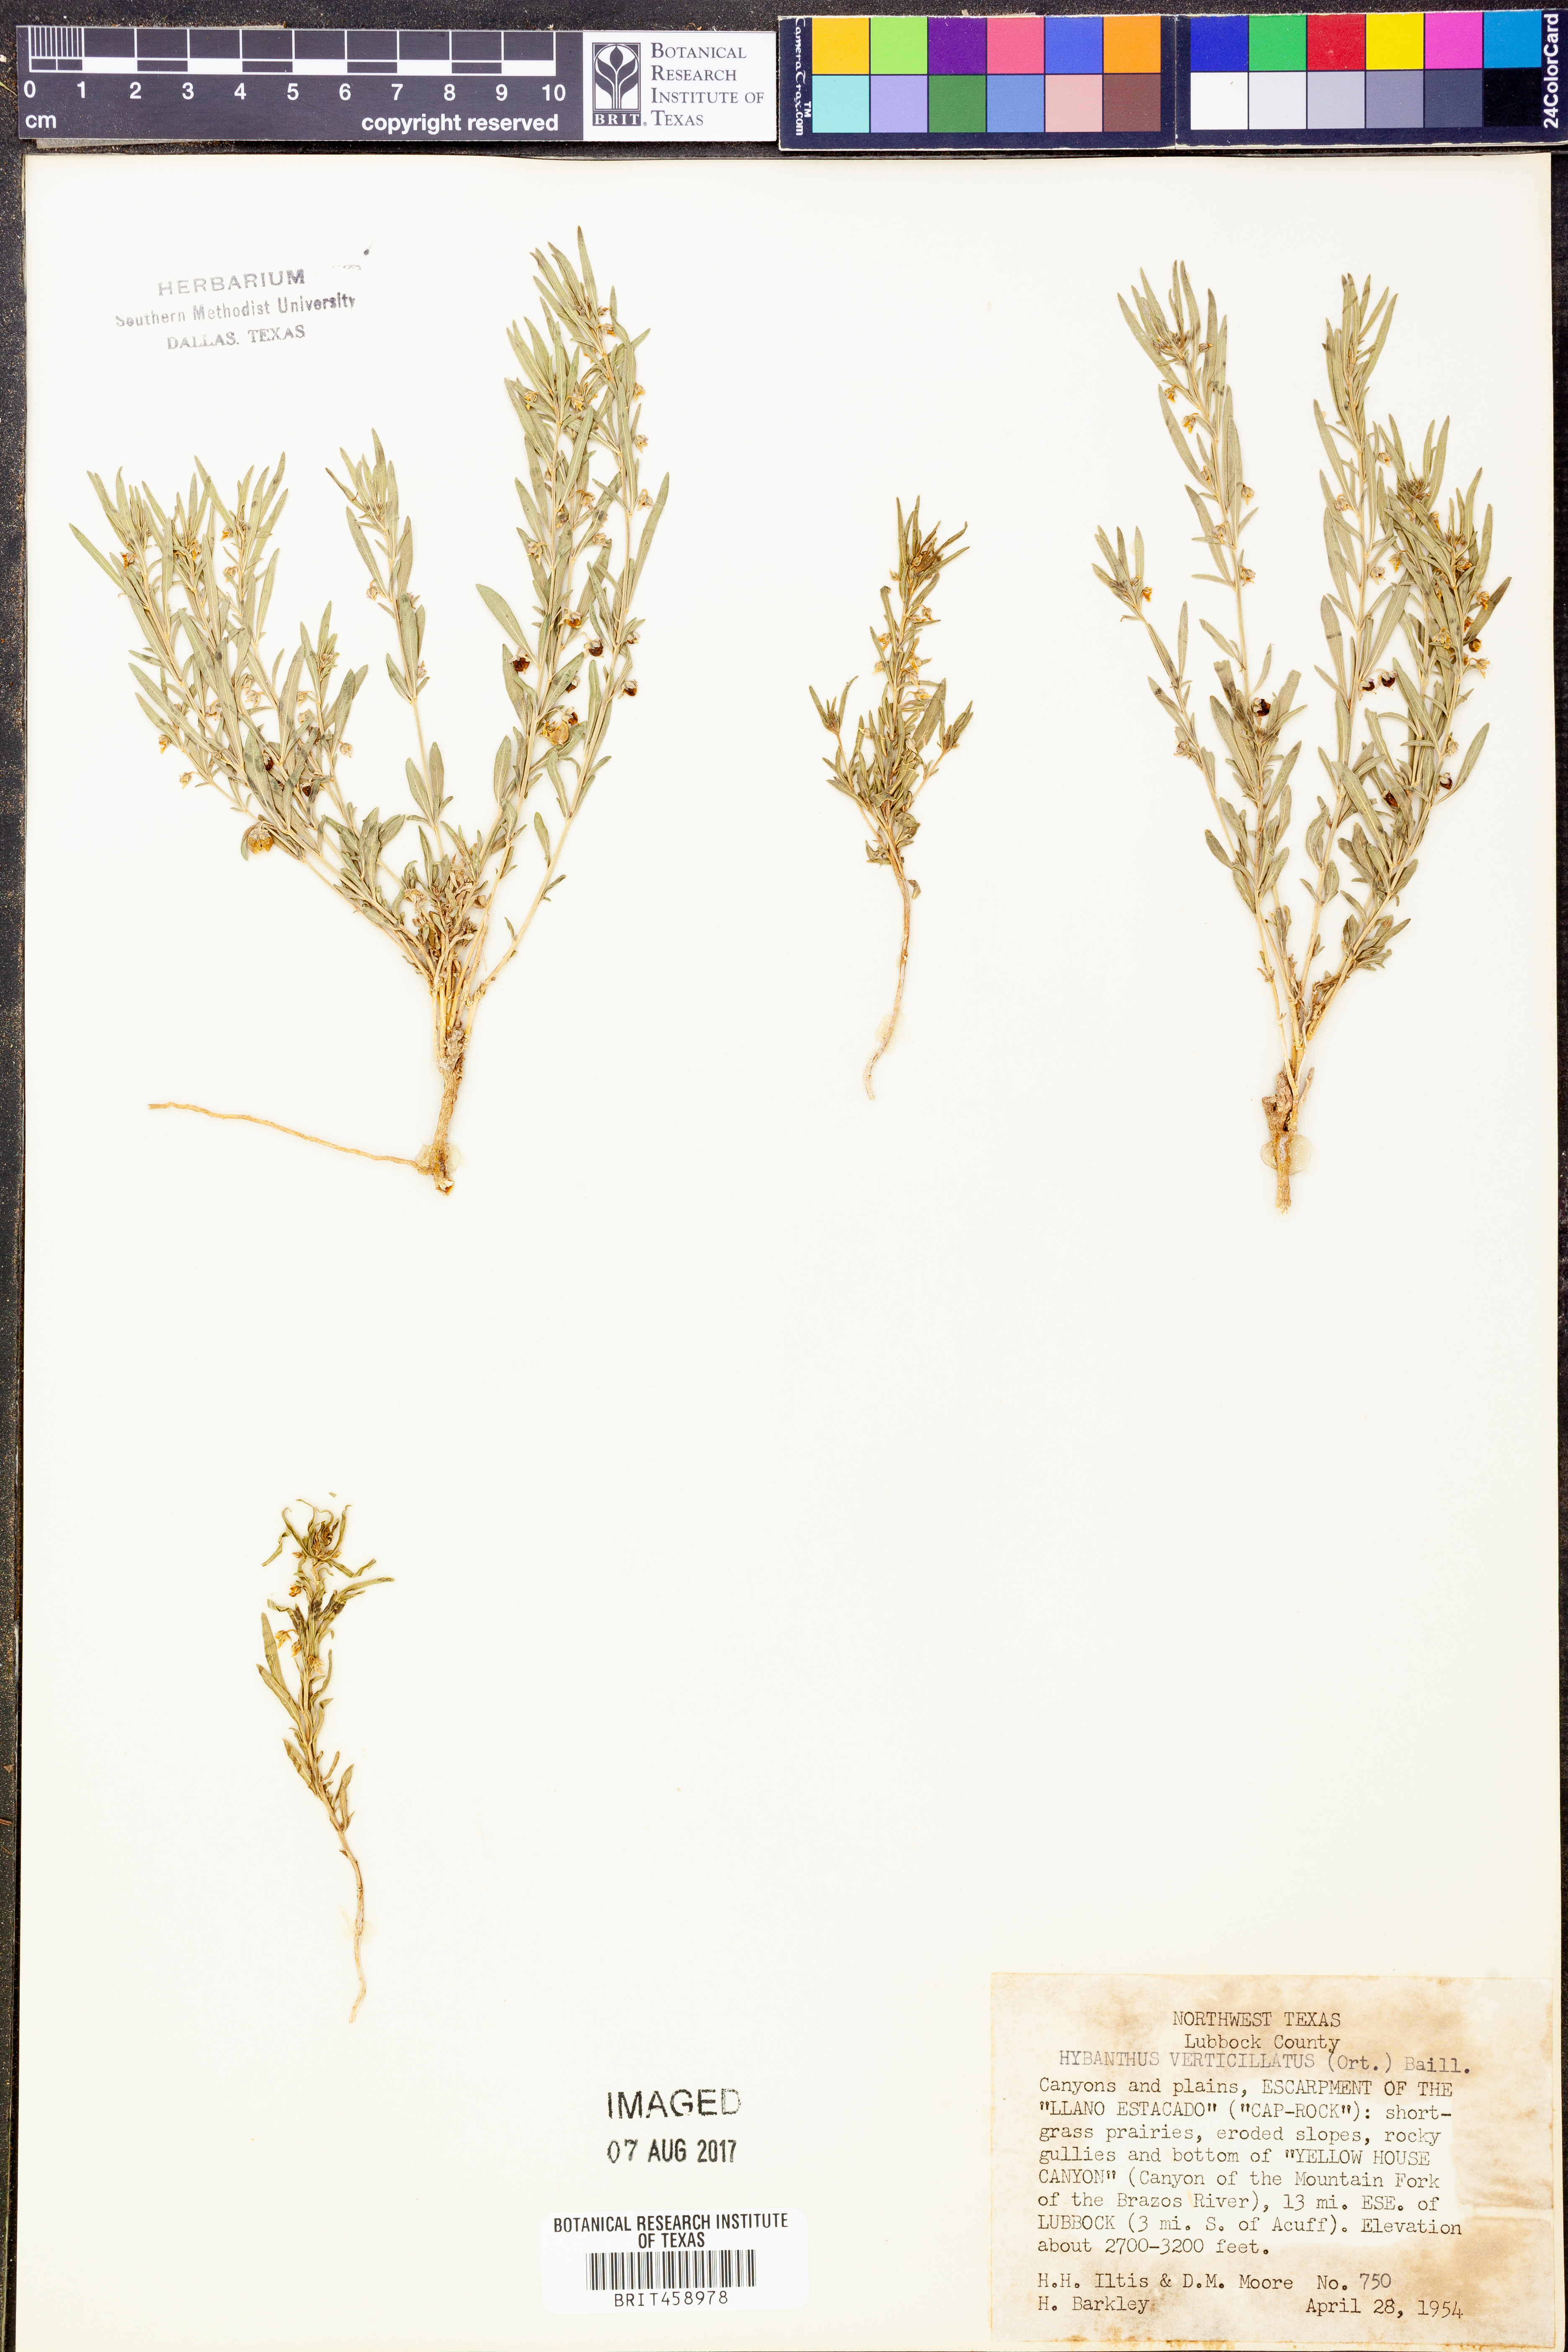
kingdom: Plantae
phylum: Tracheophyta
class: Magnoliopsida
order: Malpighiales
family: Violaceae
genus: Pombalia
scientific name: Pombalia verticillata
